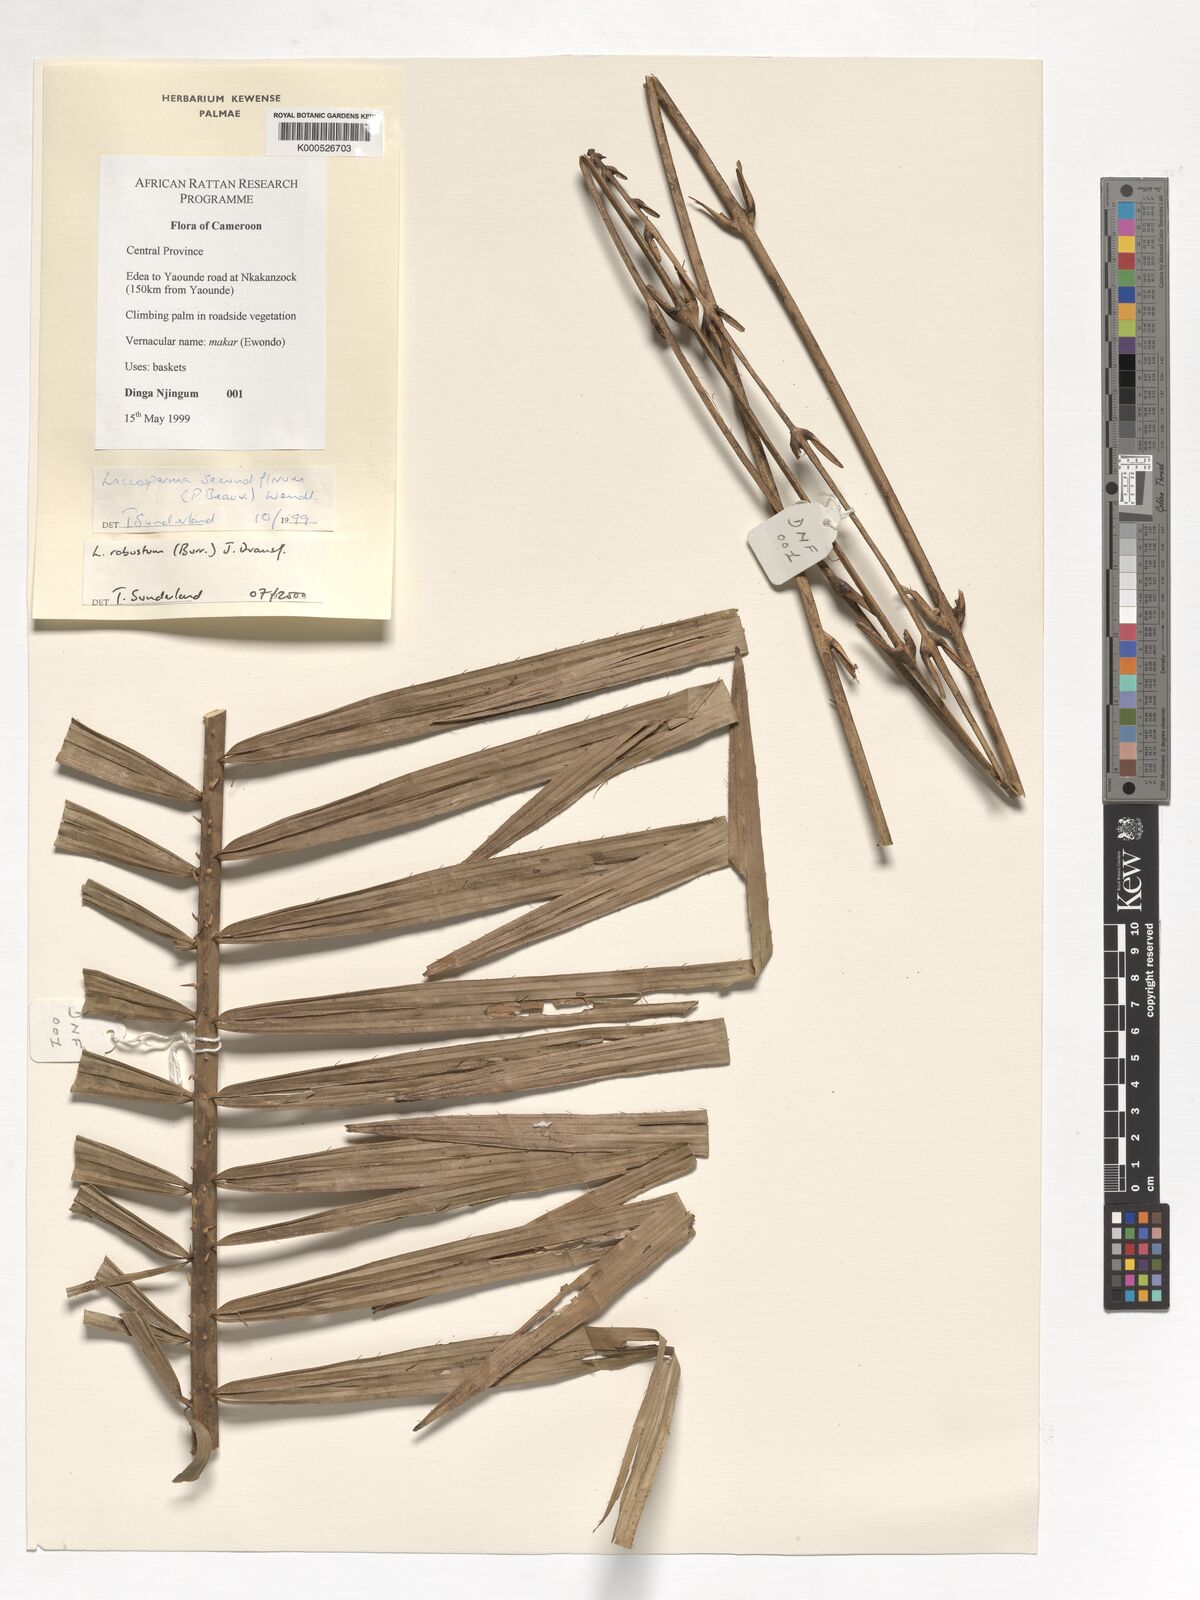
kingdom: Plantae
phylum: Tracheophyta
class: Liliopsida
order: Arecales
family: Arecaceae
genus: Laccosperma
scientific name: Laccosperma robustum
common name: Rattan
